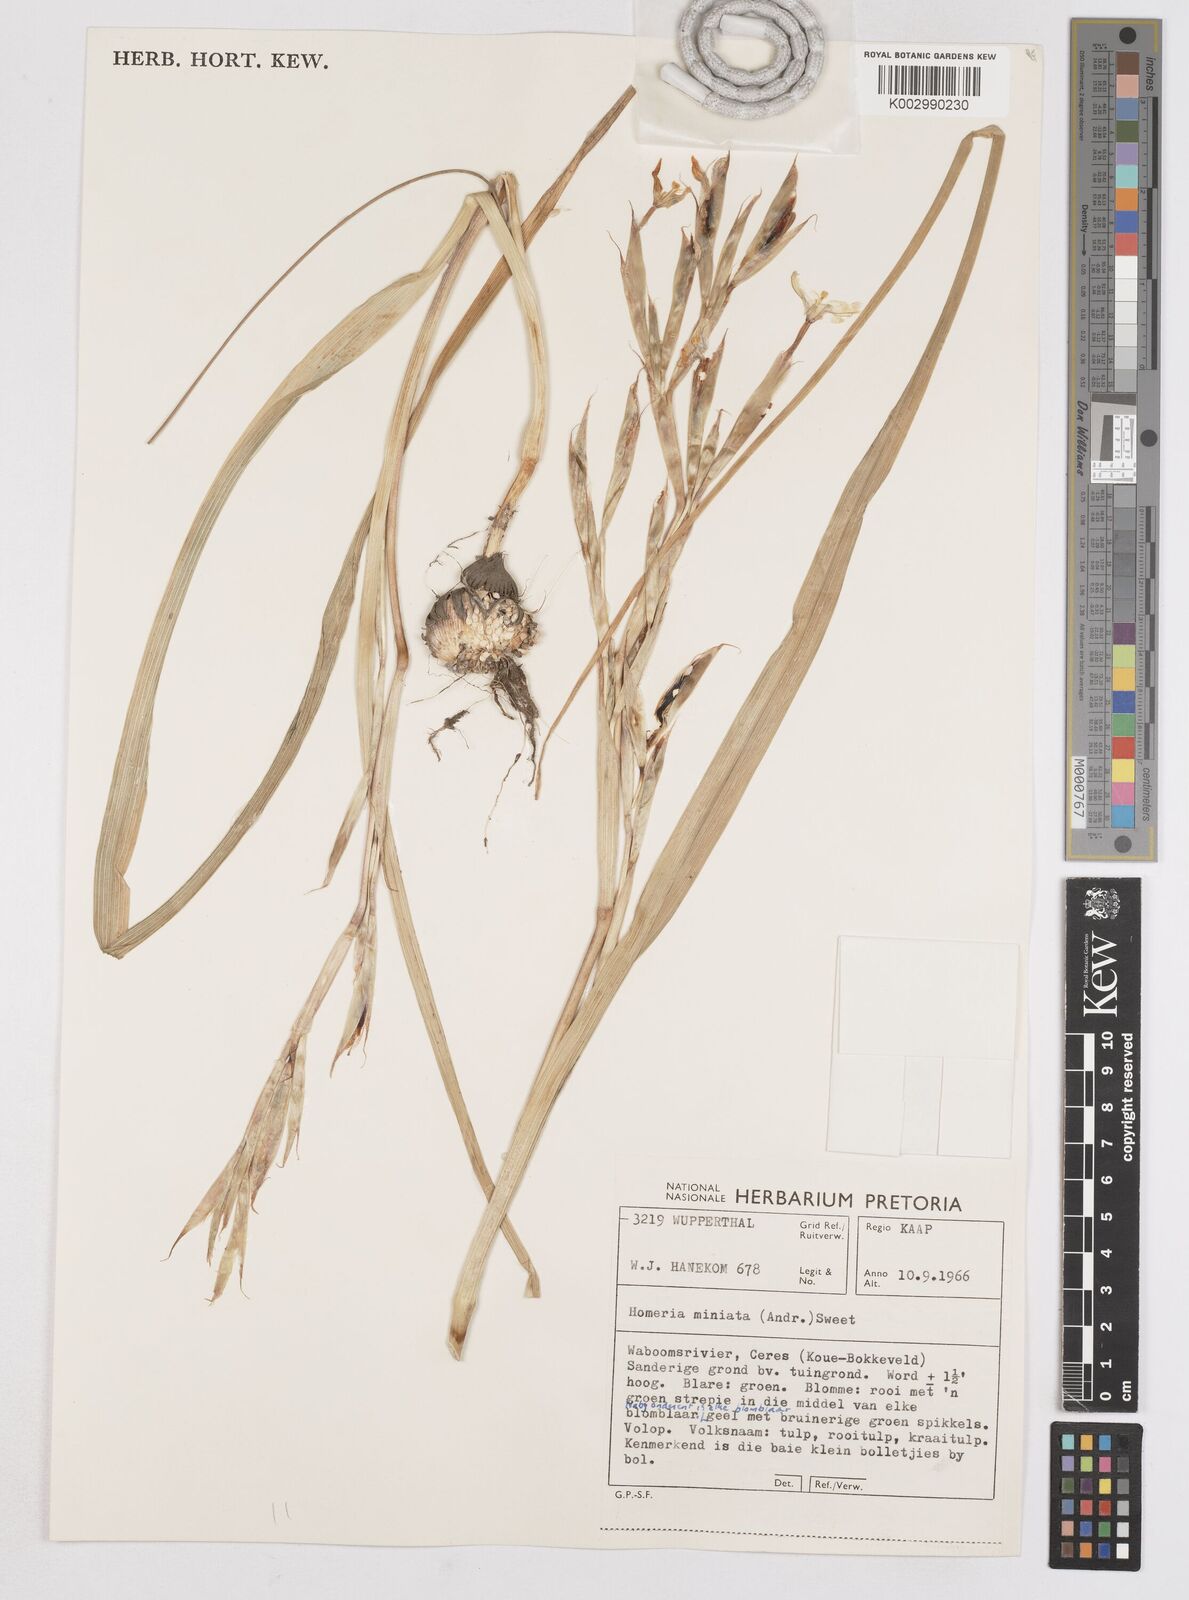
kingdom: Plantae
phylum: Tracheophyta
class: Liliopsida
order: Asparagales
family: Iridaceae
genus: Moraea
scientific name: Moraea miniata
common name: Two-leaf cape-tulip
